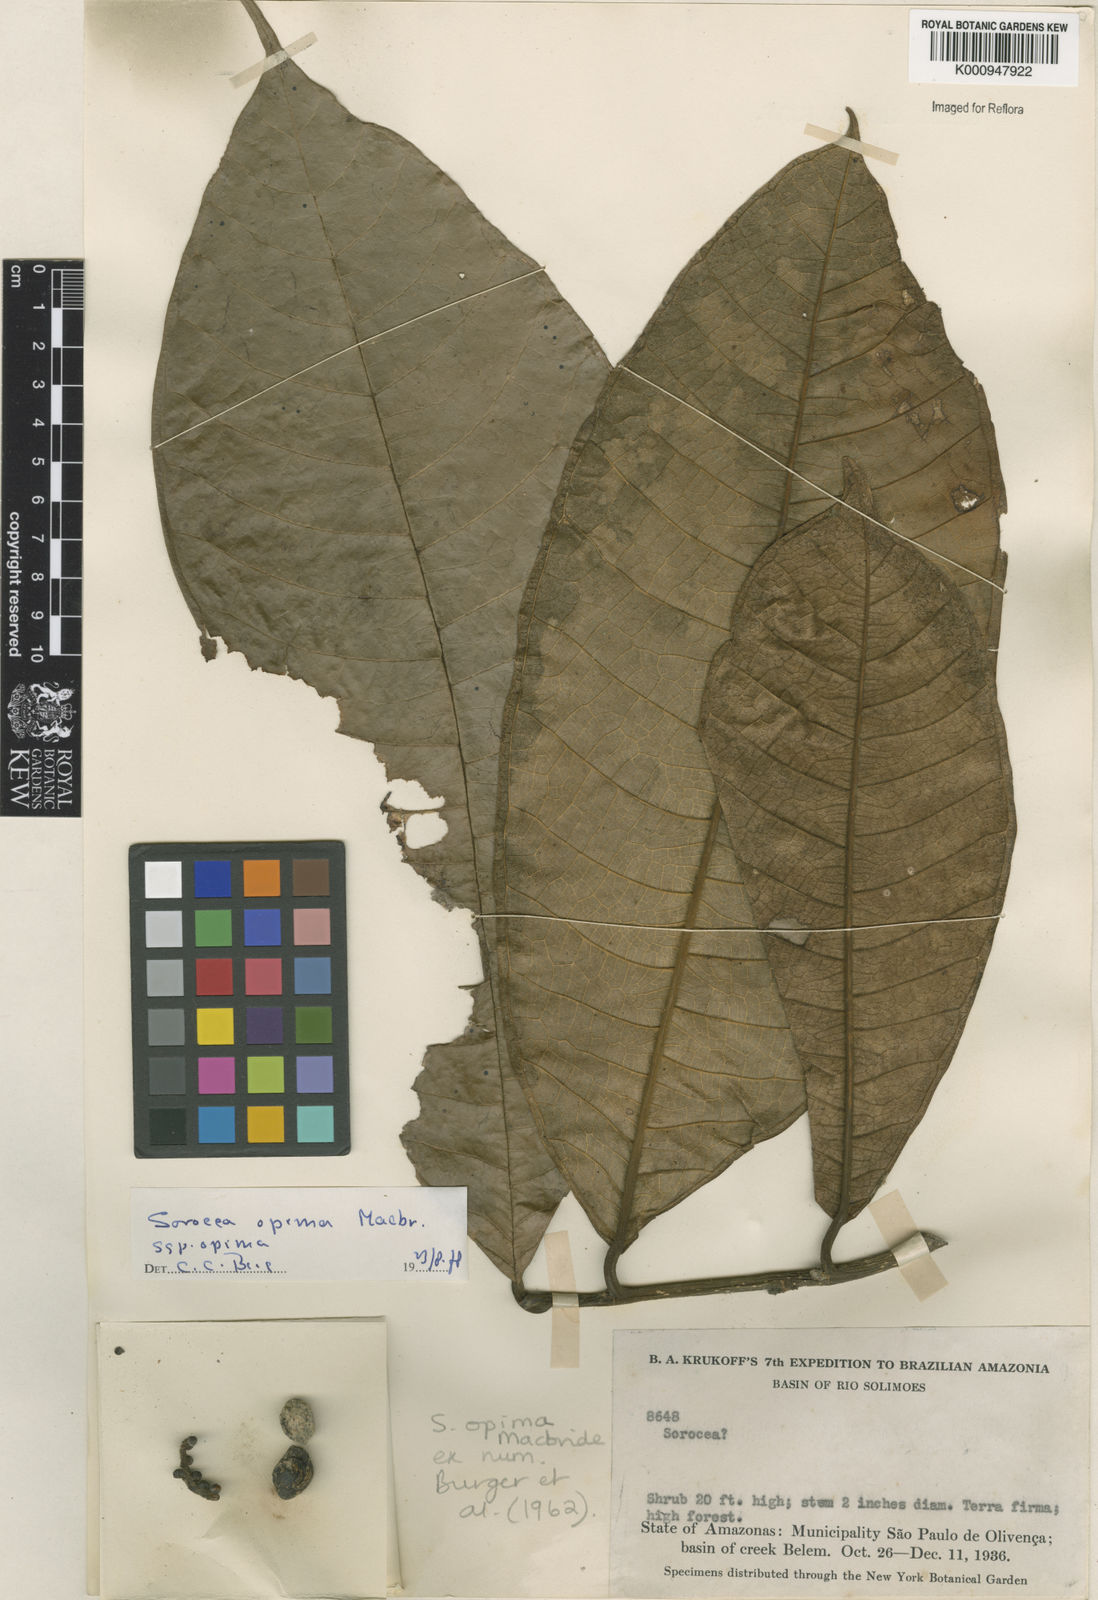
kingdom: Plantae
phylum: Tracheophyta
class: Magnoliopsida
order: Rosales
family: Moraceae
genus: Sorocea
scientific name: Sorocea pubivena
